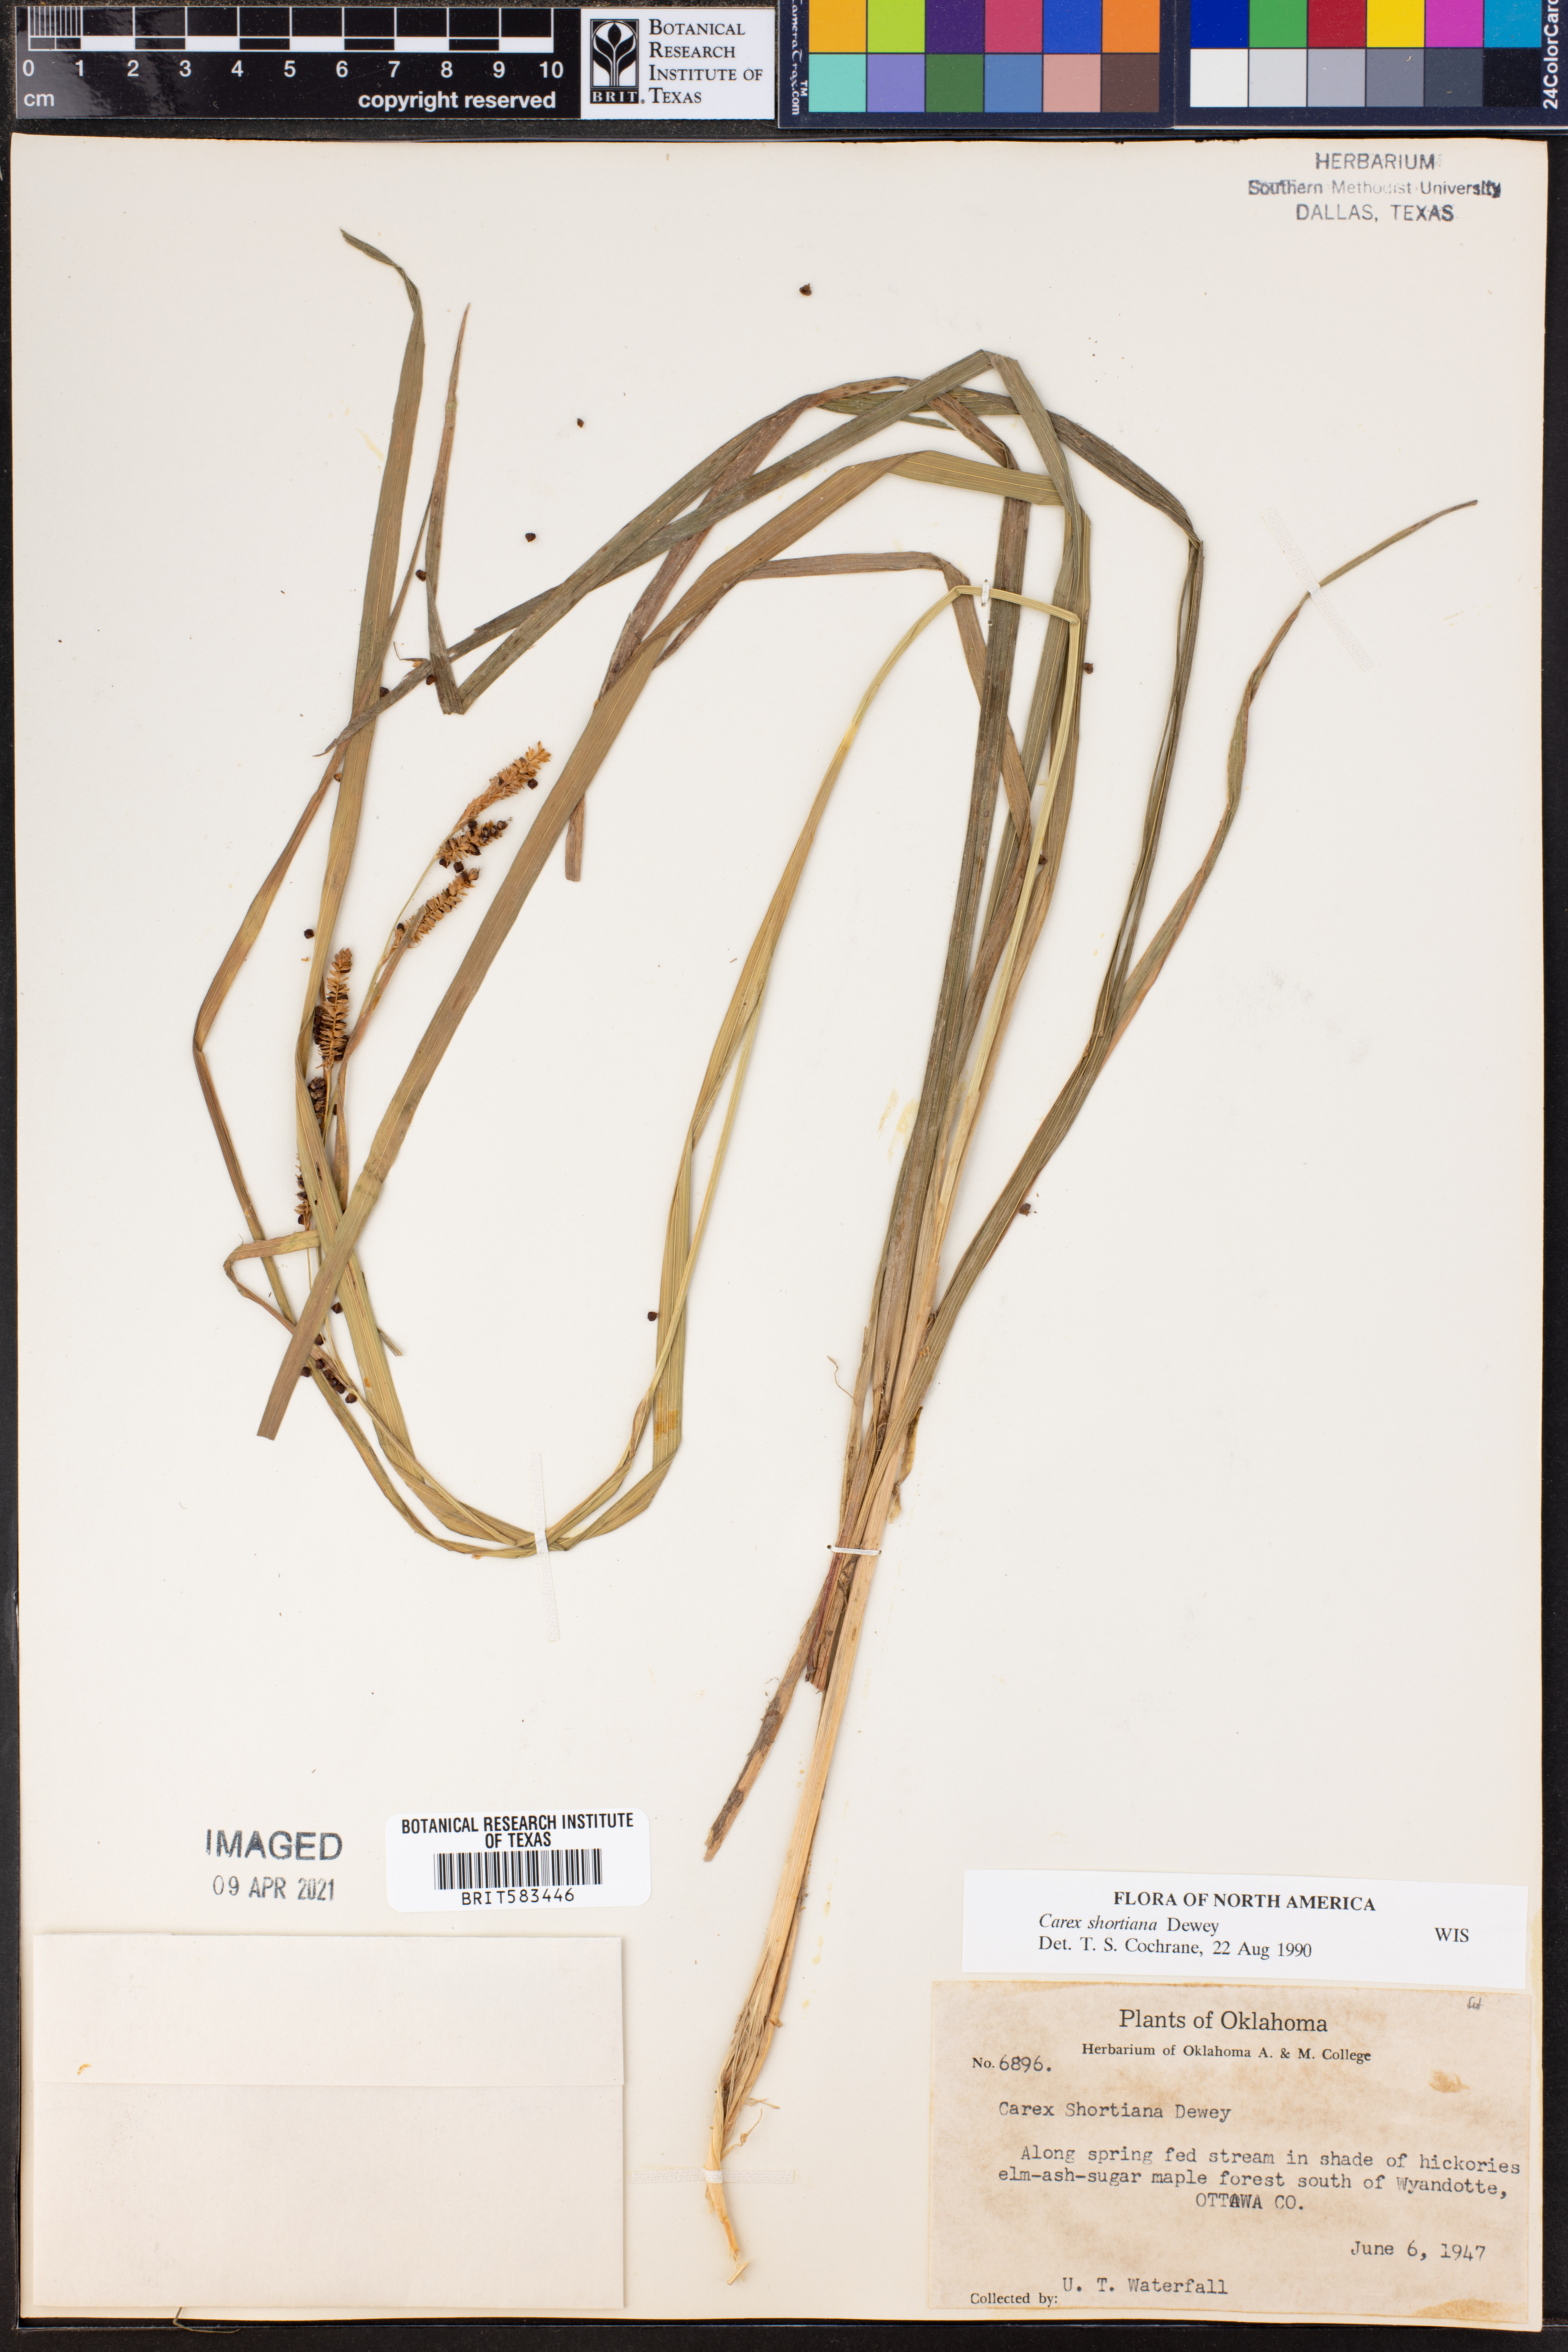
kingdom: Plantae
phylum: Tracheophyta
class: Liliopsida
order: Poales
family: Cyperaceae
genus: Carex
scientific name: Carex shortiana
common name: Short's sedge
